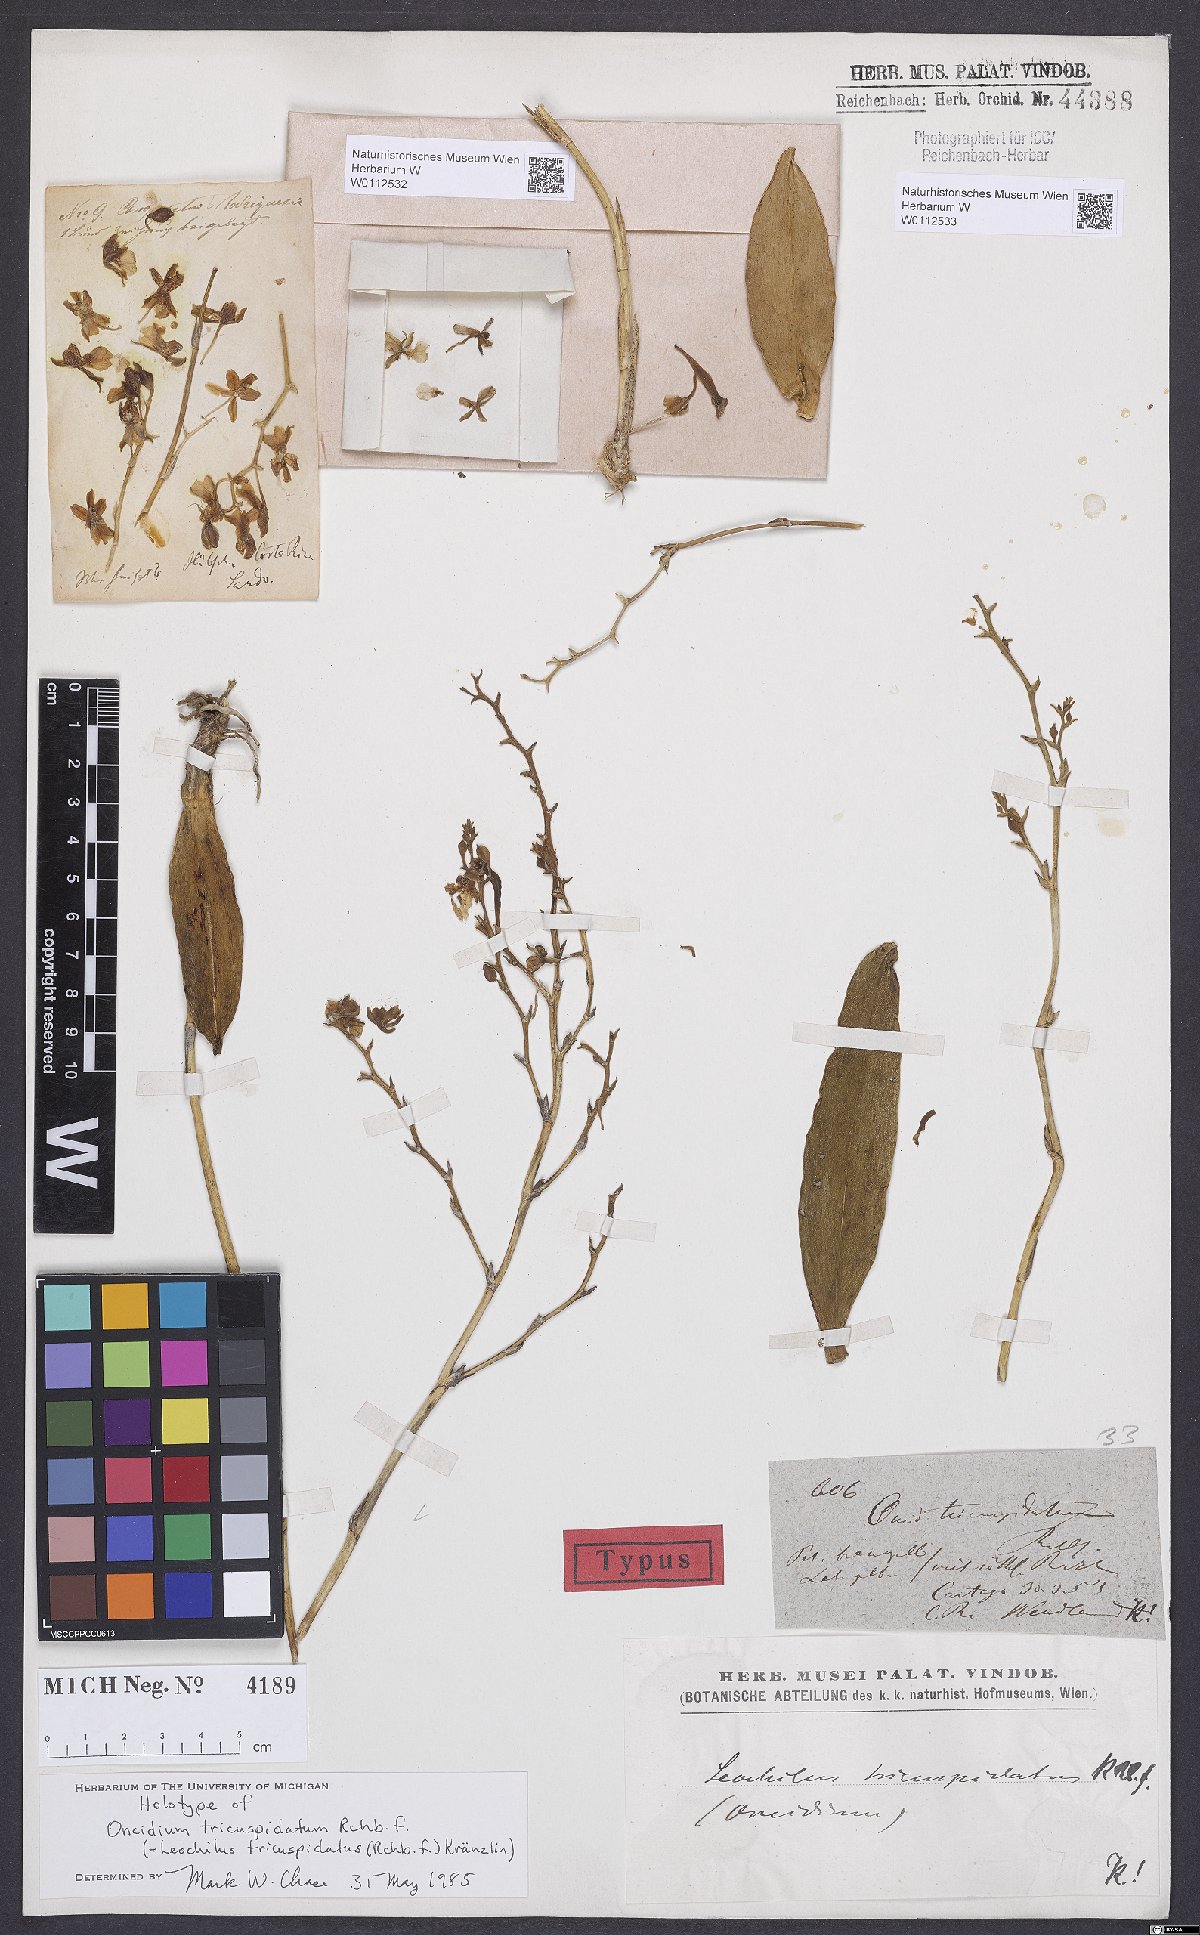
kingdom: Plantae
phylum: Tracheophyta
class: Liliopsida
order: Asparagales
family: Orchidaceae
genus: Leochilus
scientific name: Leochilus tricuspidatus
